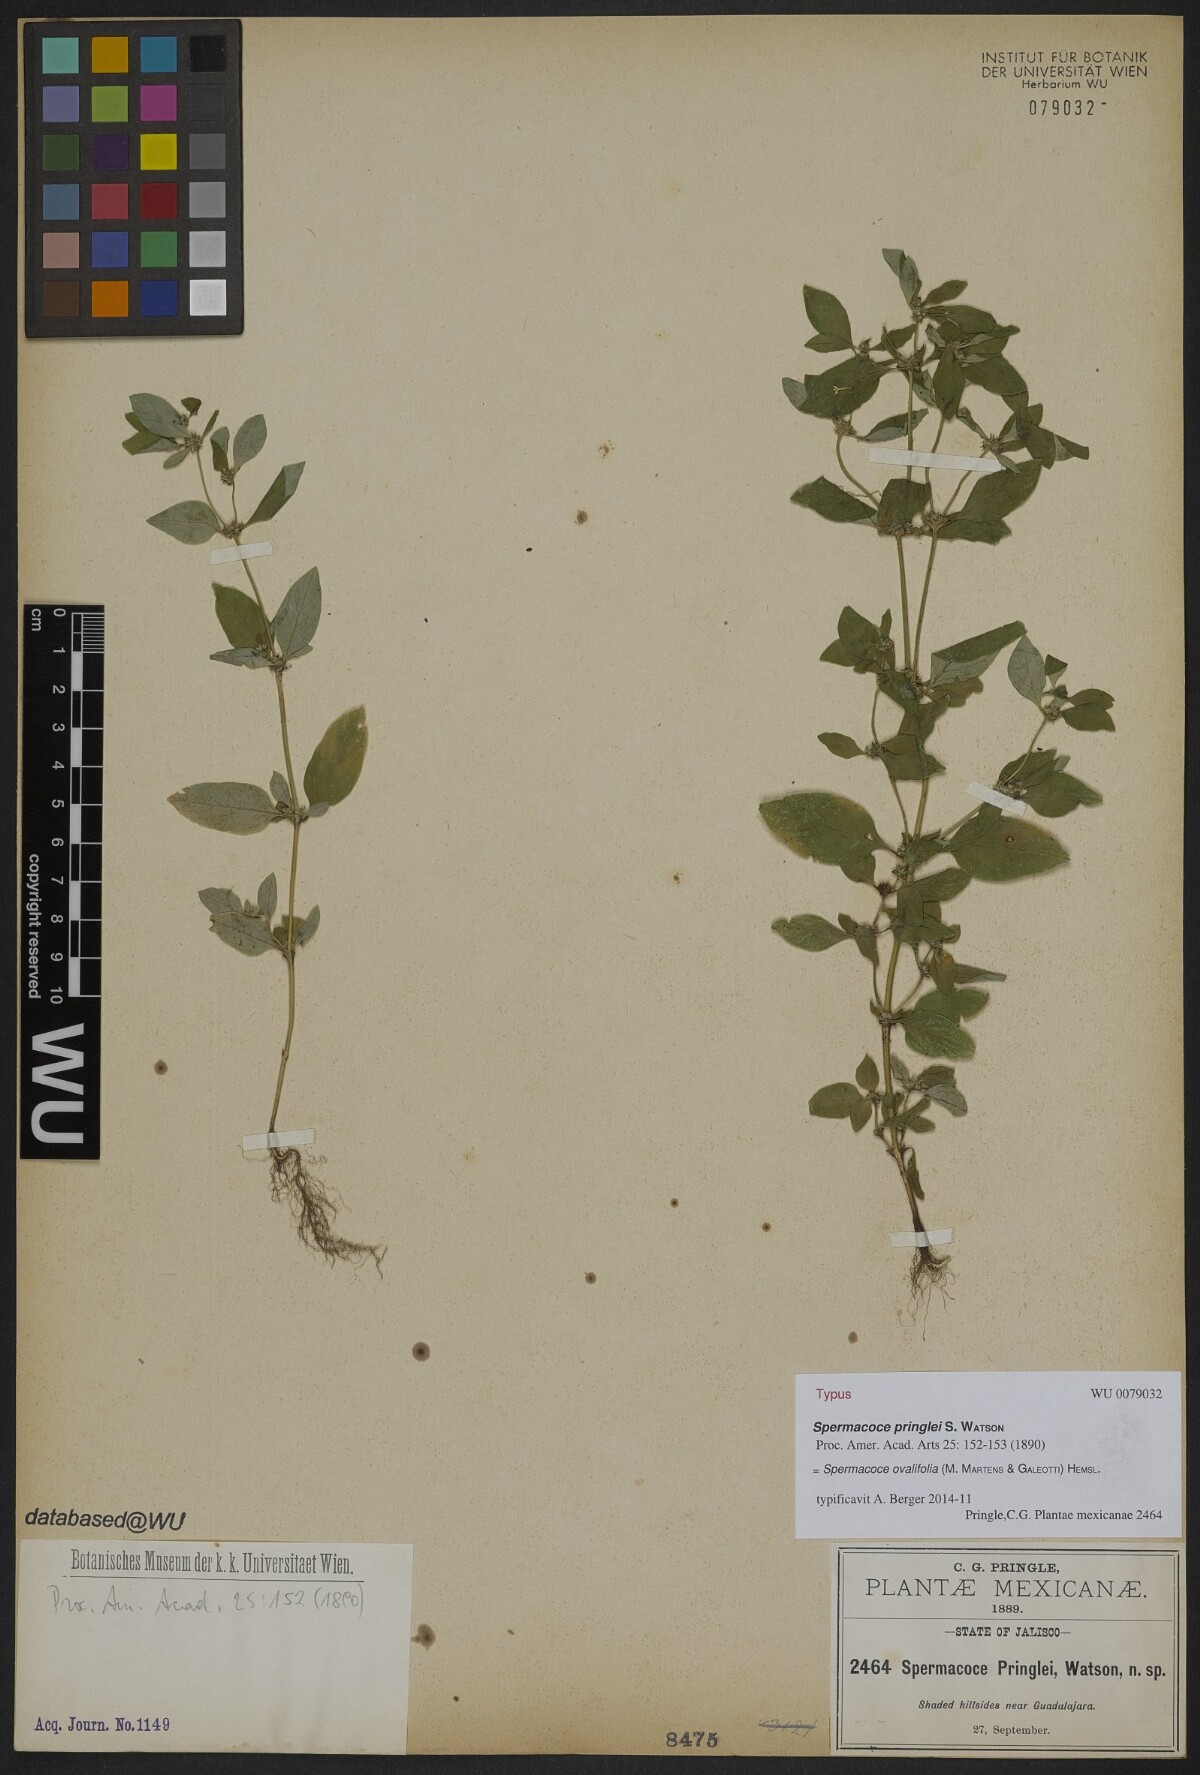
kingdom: Plantae
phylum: Tracheophyta
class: Magnoliopsida
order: Gentianales
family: Rubiaceae
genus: Spermacoce
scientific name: Spermacoce ovalifolia
